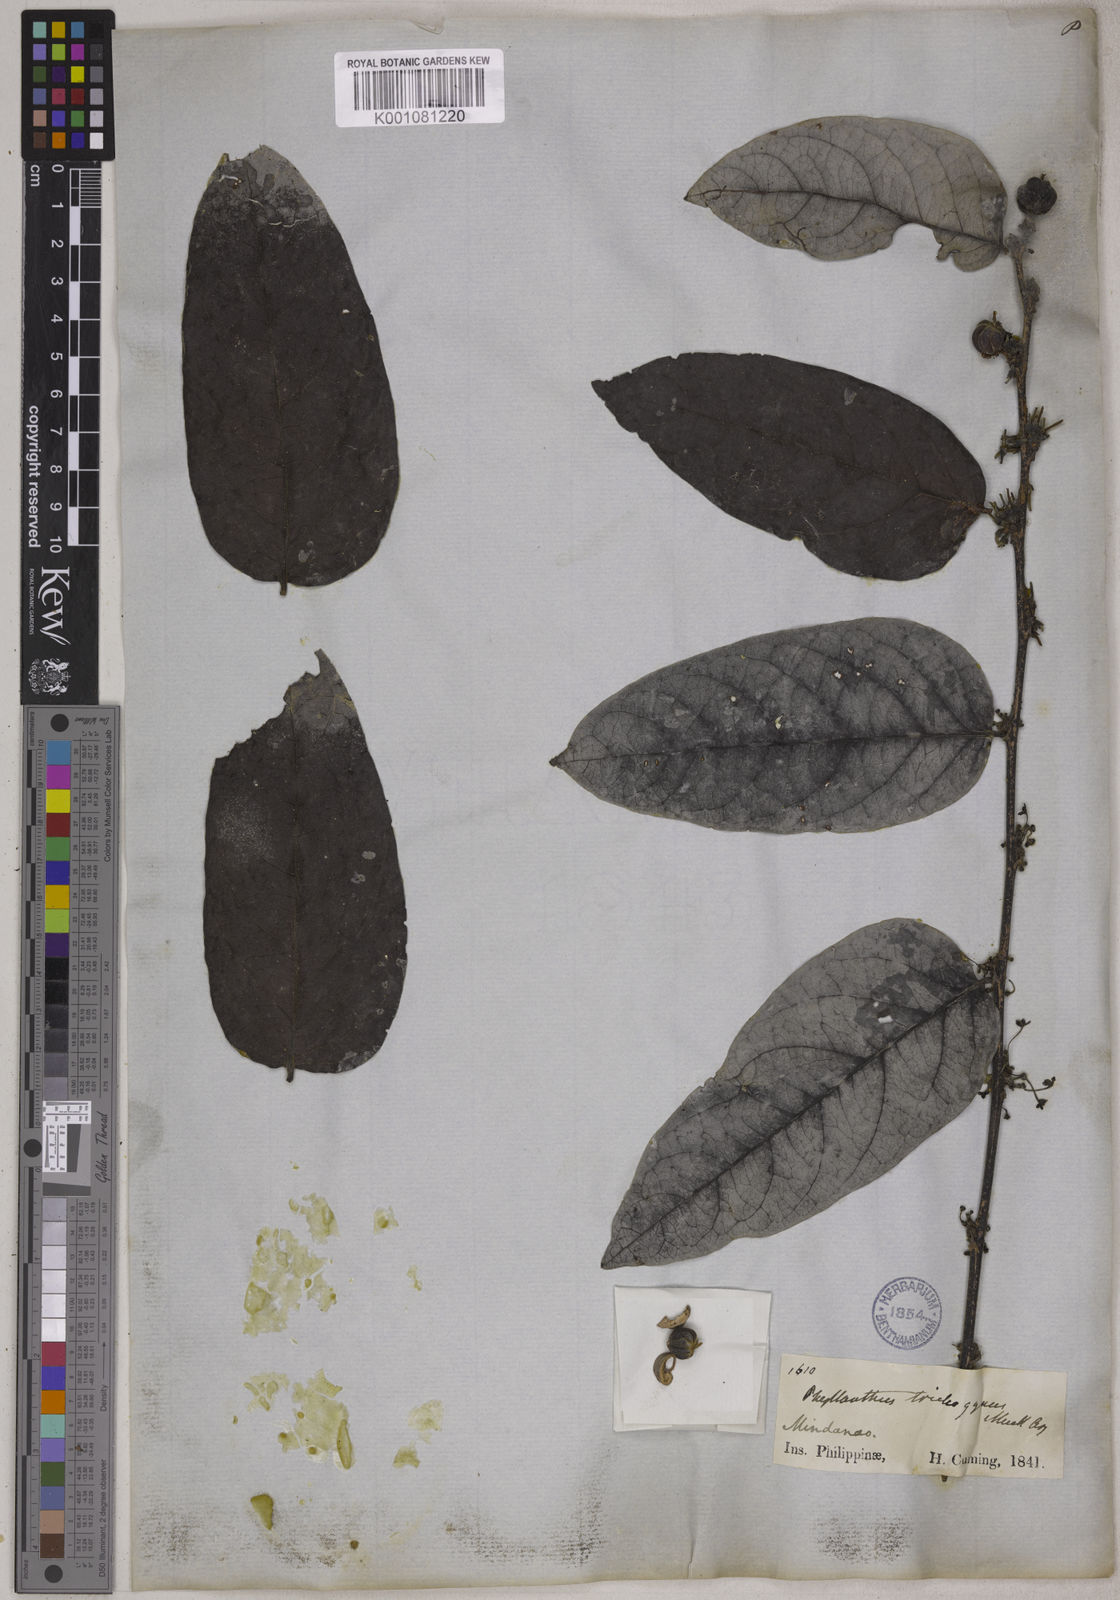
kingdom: Plantae
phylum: Tracheophyta
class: Magnoliopsida
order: Malpighiales
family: Phyllanthaceae
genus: Glochidion
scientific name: Glochidion
